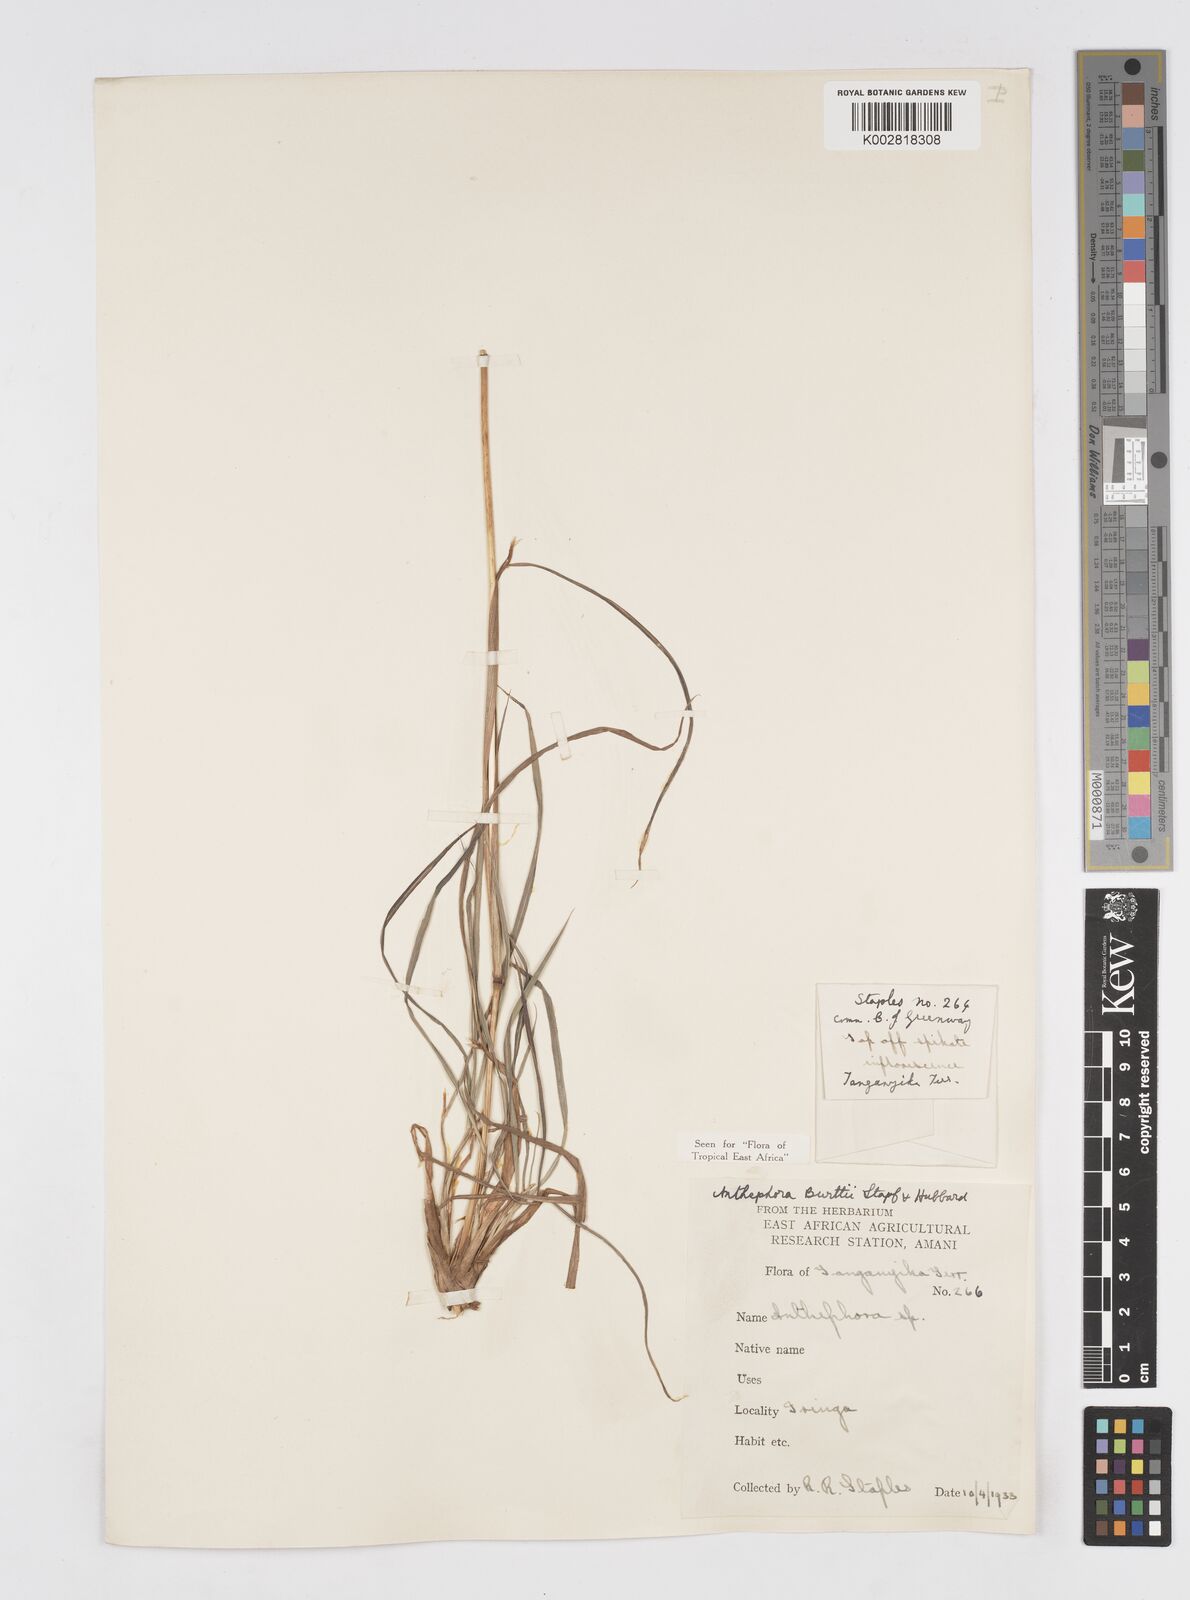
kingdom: Plantae
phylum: Tracheophyta
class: Liliopsida
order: Poales
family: Poaceae
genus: Anthephora
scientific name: Anthephora elongata
